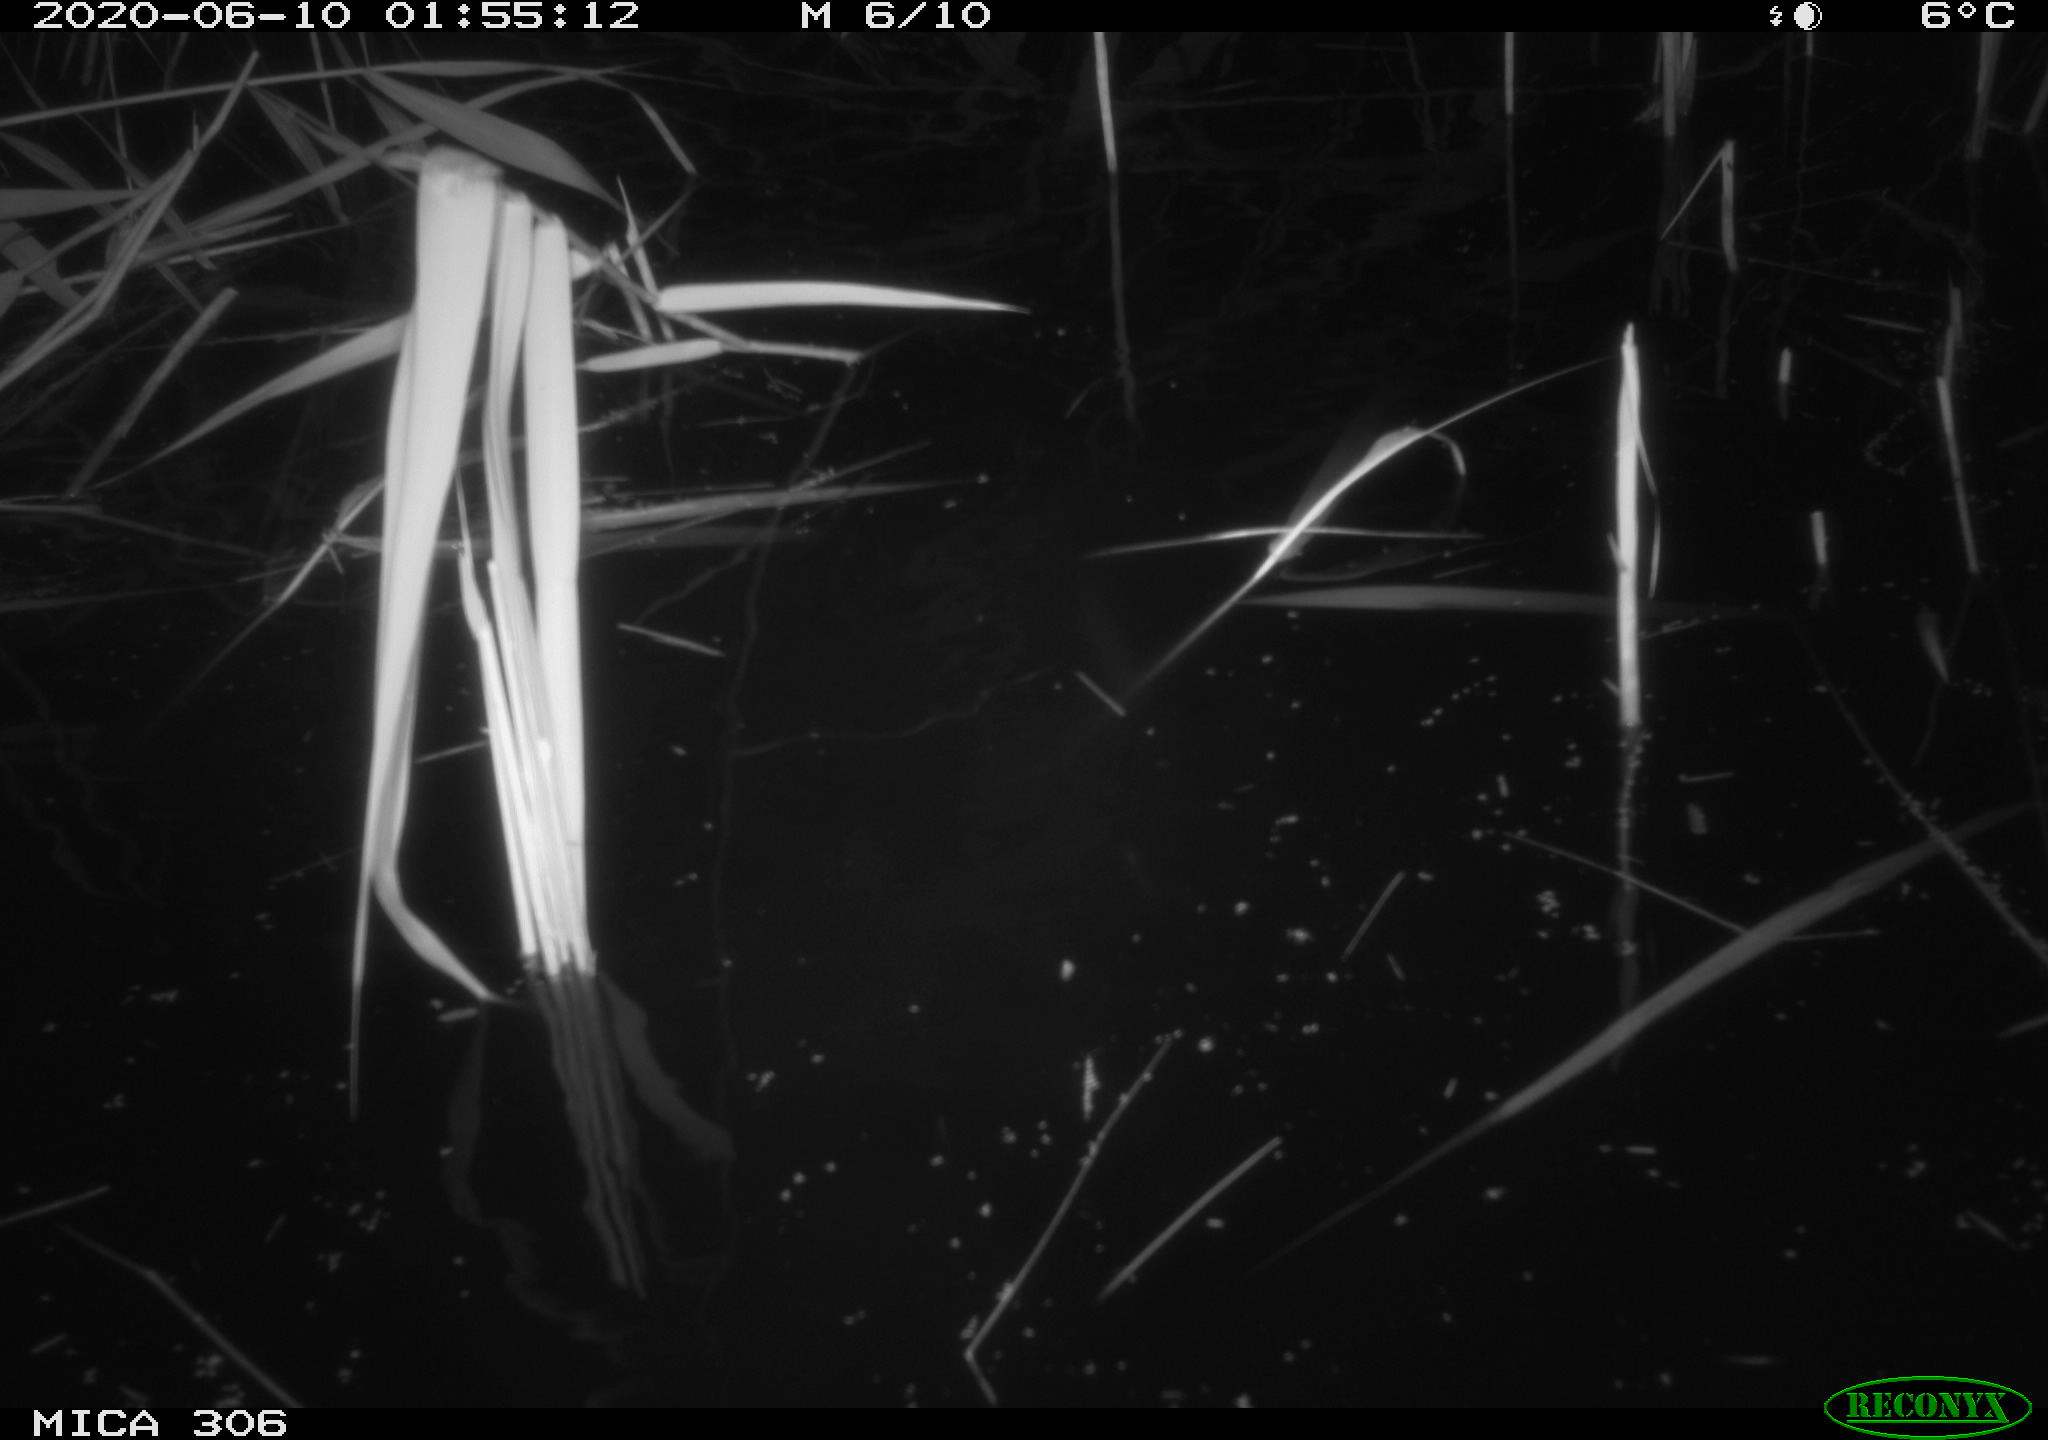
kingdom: Animalia
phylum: Chordata
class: Mammalia
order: Rodentia
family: Muridae
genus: Rattus
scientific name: Rattus norvegicus
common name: Brown rat
